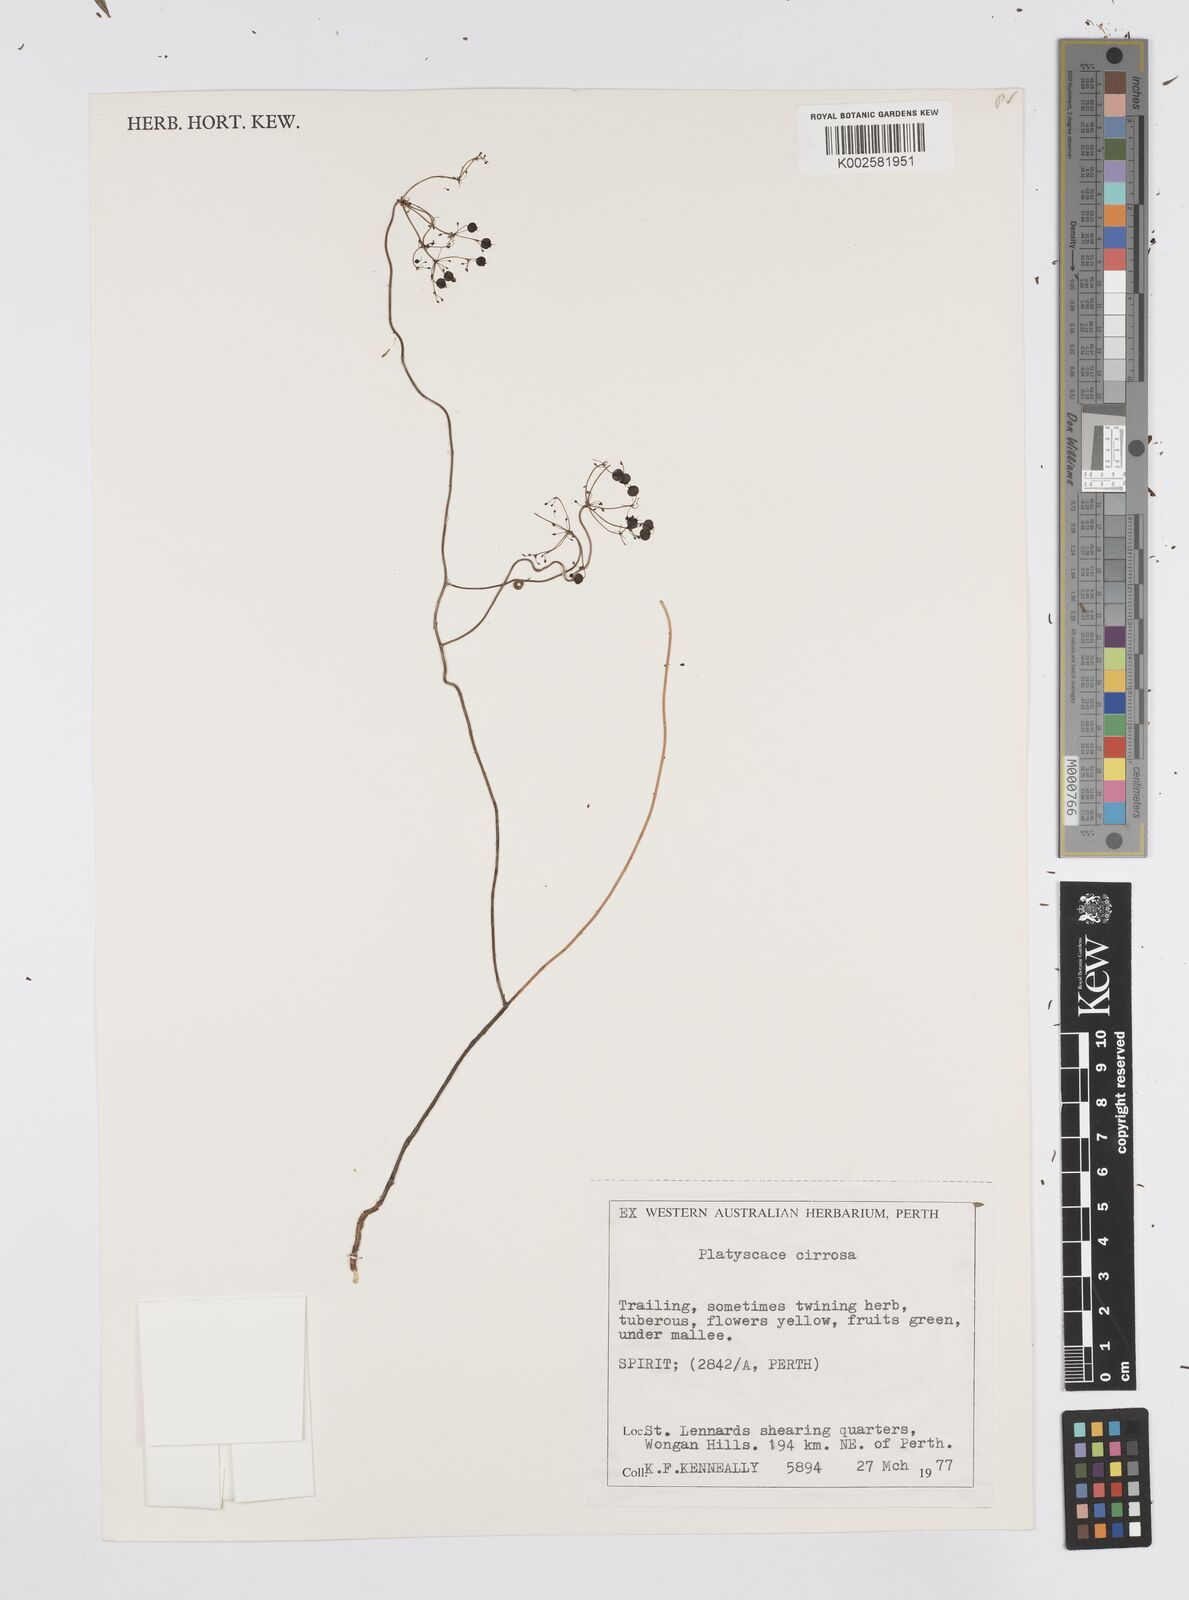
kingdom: Plantae
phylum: Tracheophyta
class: Magnoliopsida
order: Apiales
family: Apiaceae
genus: Platysace
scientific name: Platysace cirrosa
